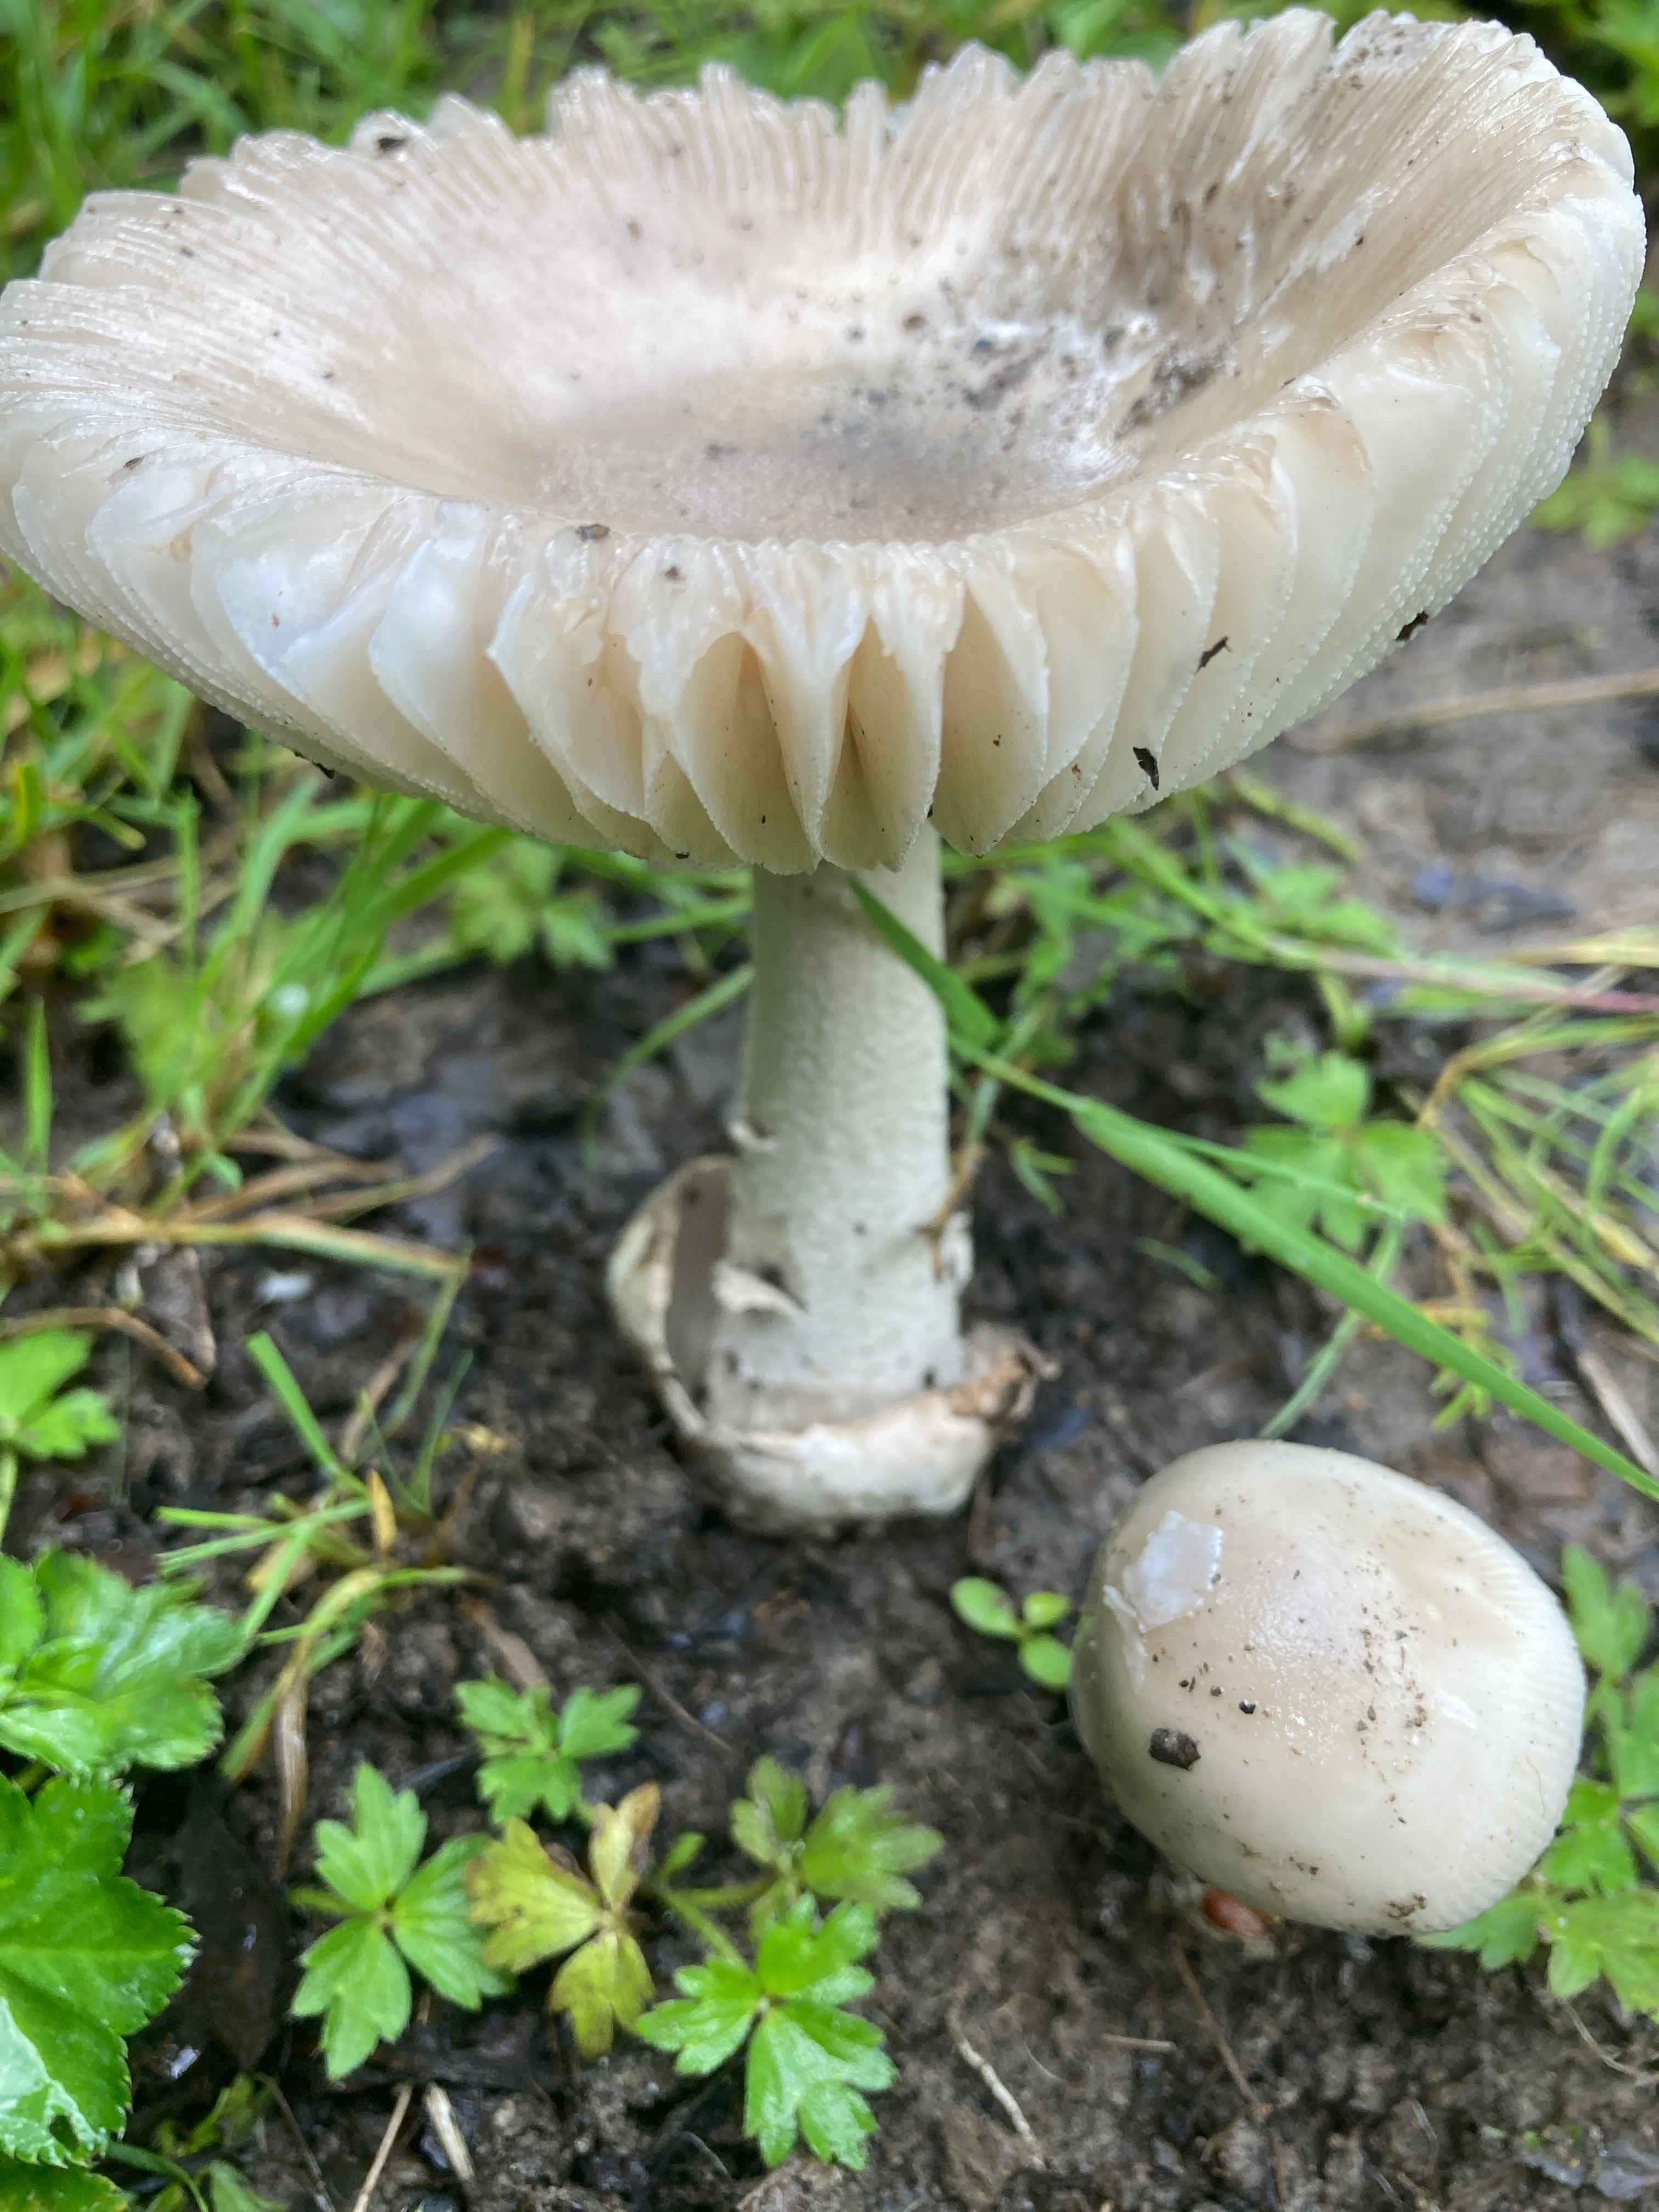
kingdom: Fungi
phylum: Basidiomycota
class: Agaricomycetes
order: Agaricales
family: Amanitaceae
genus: Amanita
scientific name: Amanita
